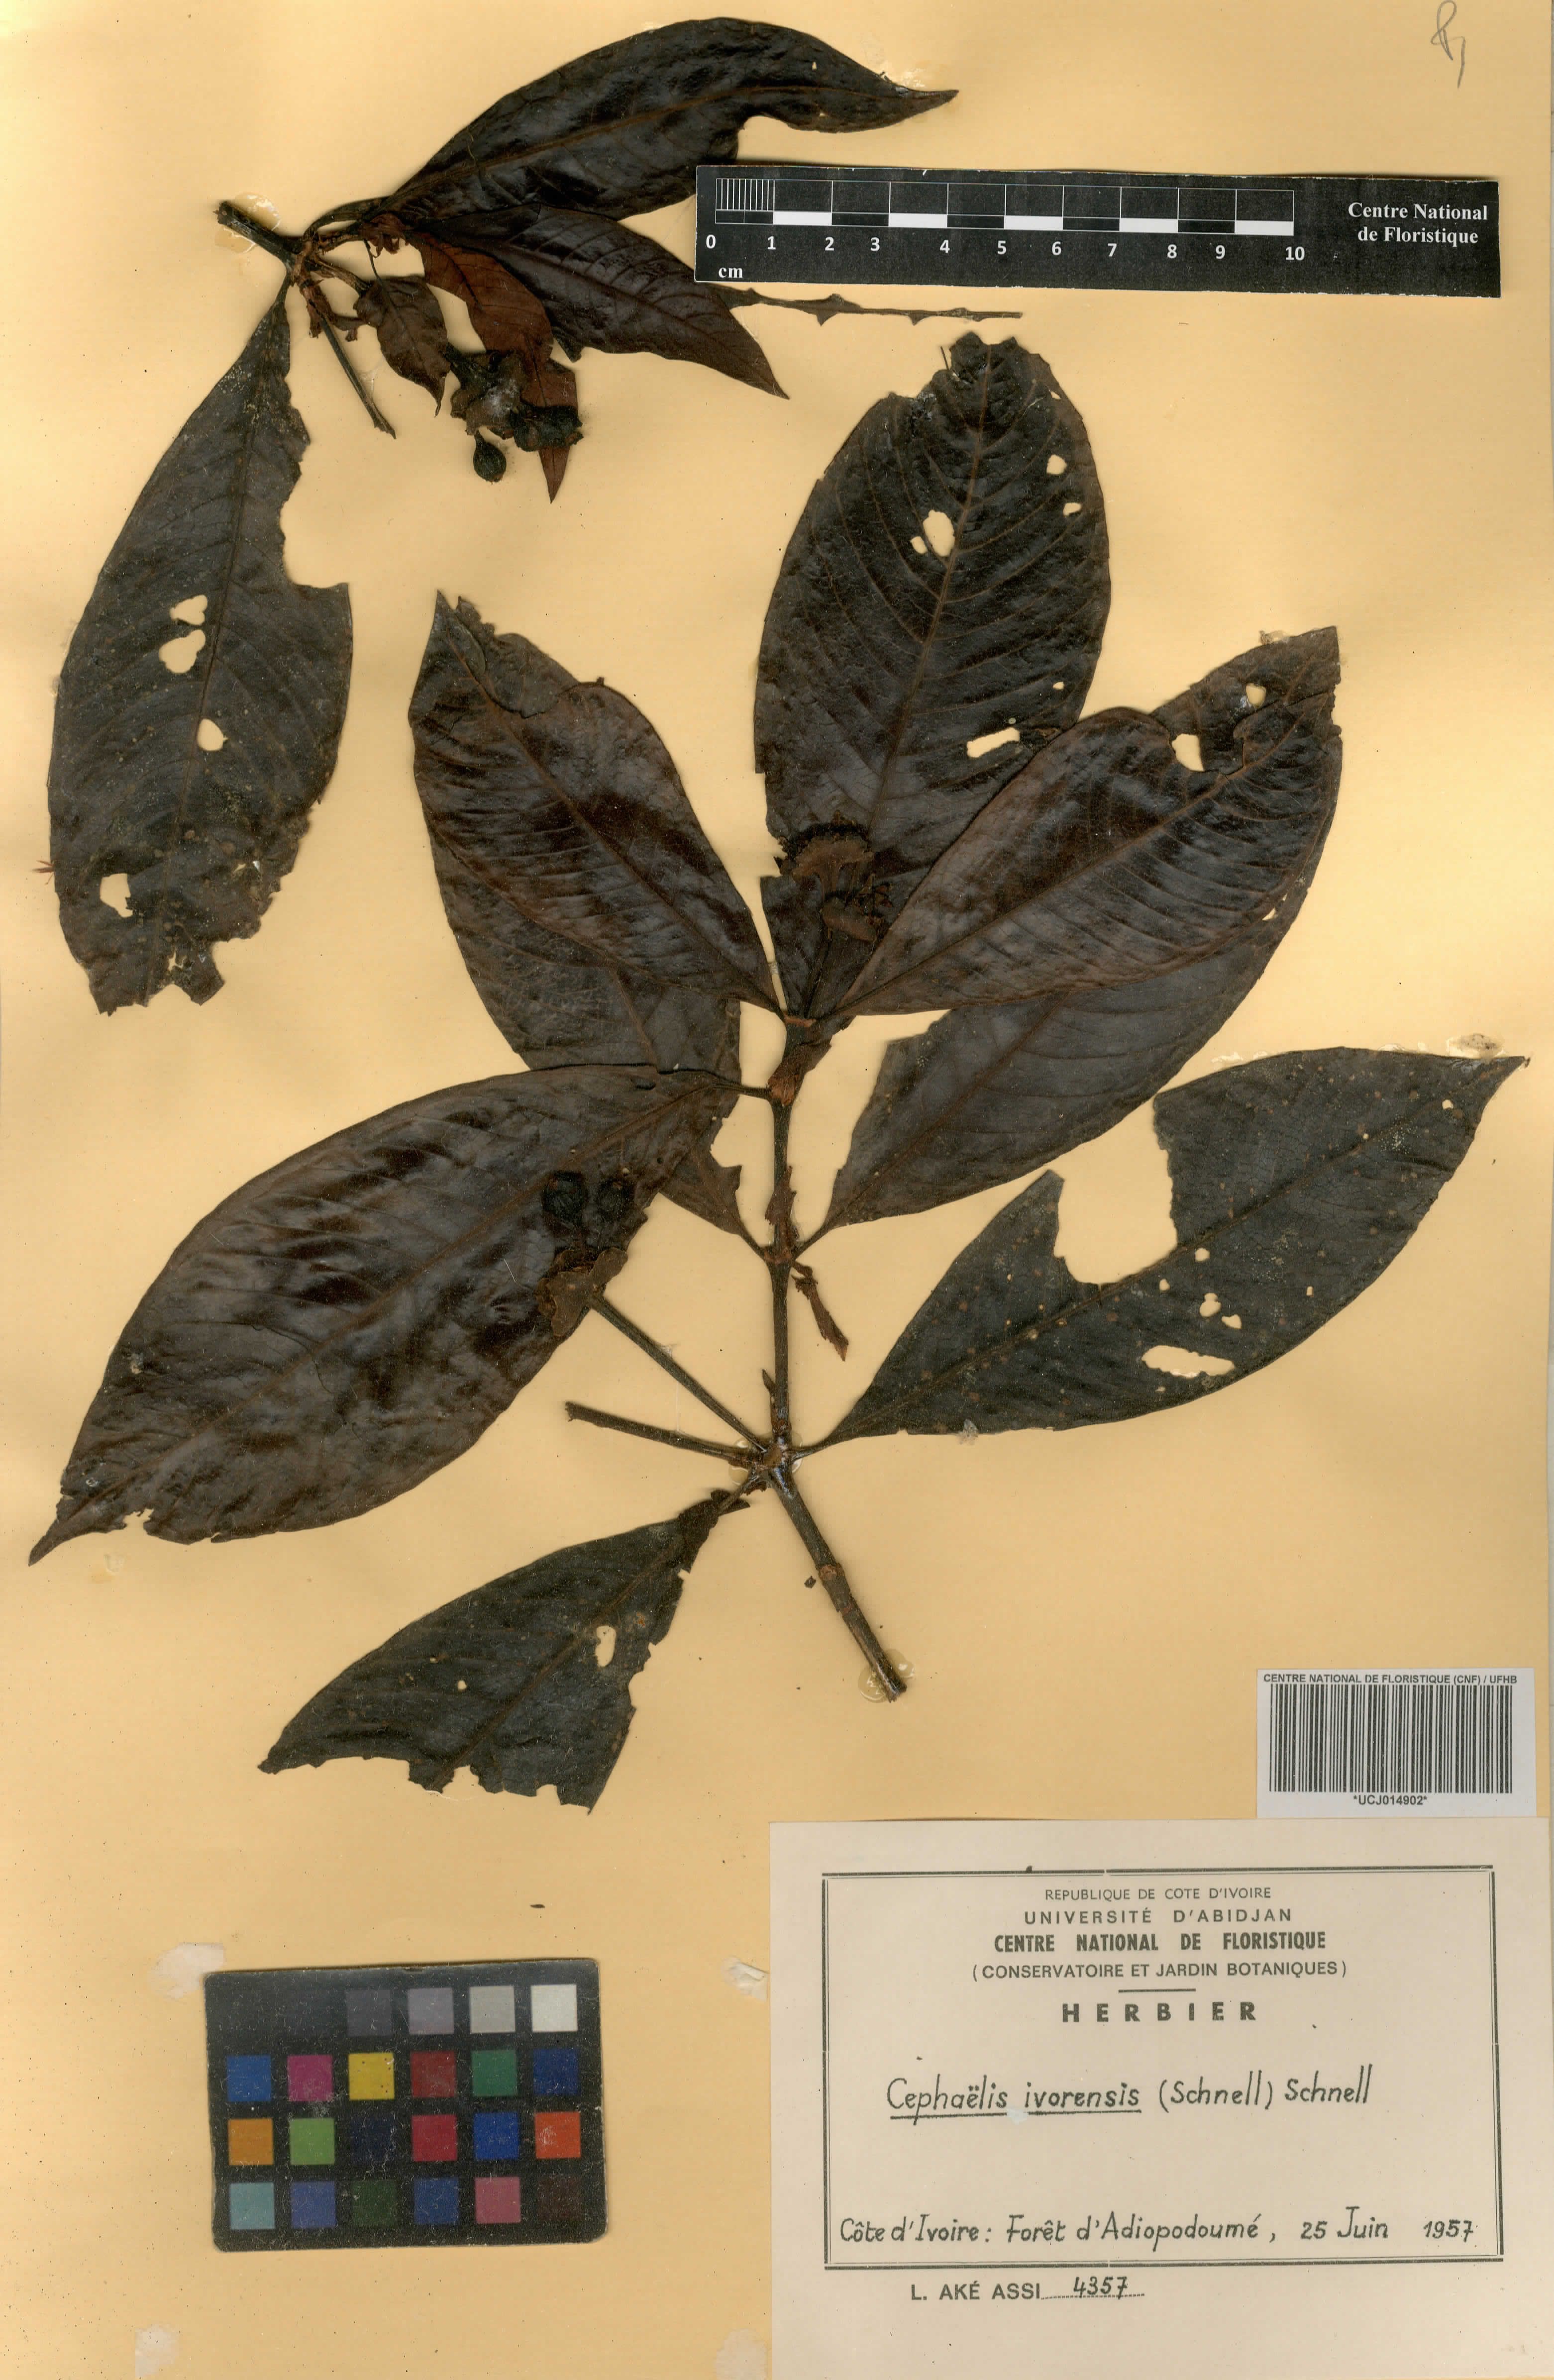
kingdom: Plantae
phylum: Tracheophyta
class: Magnoliopsida
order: Gentianales
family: Rubiaceae
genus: Psychotria
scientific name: Psychotria peduncularis
